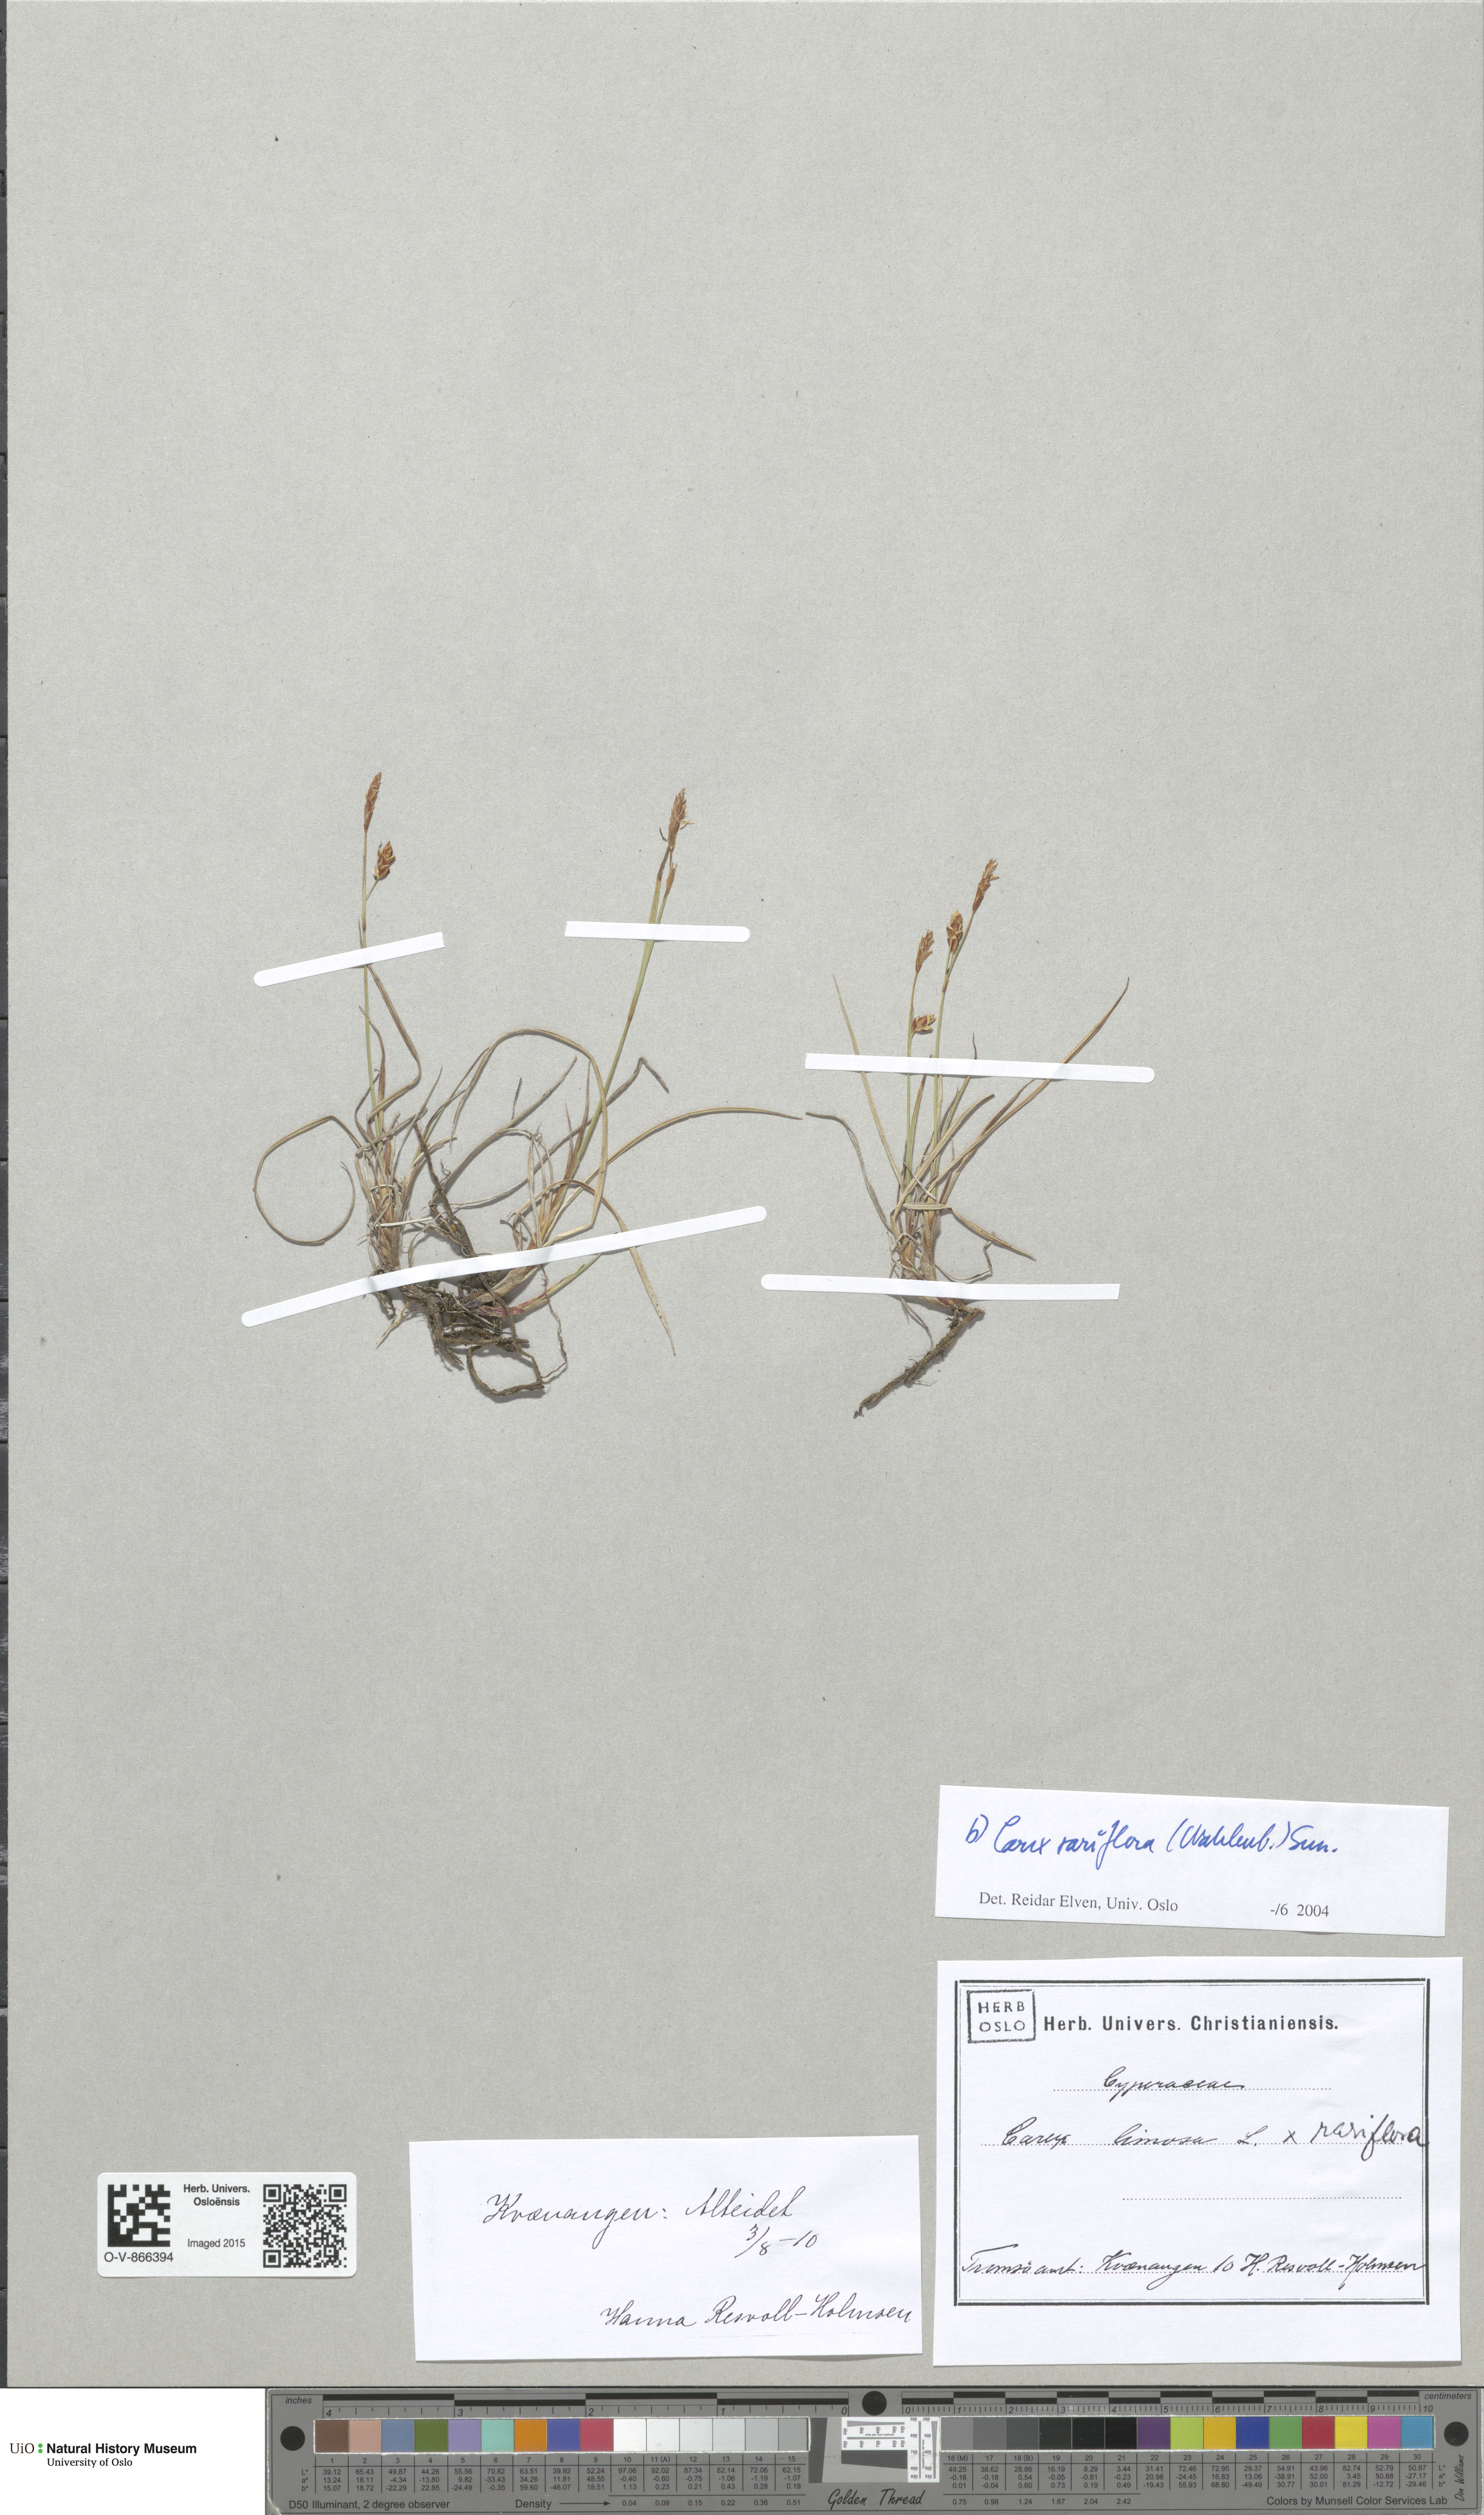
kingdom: Plantae
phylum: Tracheophyta
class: Liliopsida
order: Poales
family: Cyperaceae
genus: Carex
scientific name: Carex rariflora
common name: Loose-flowered alpine sedge
